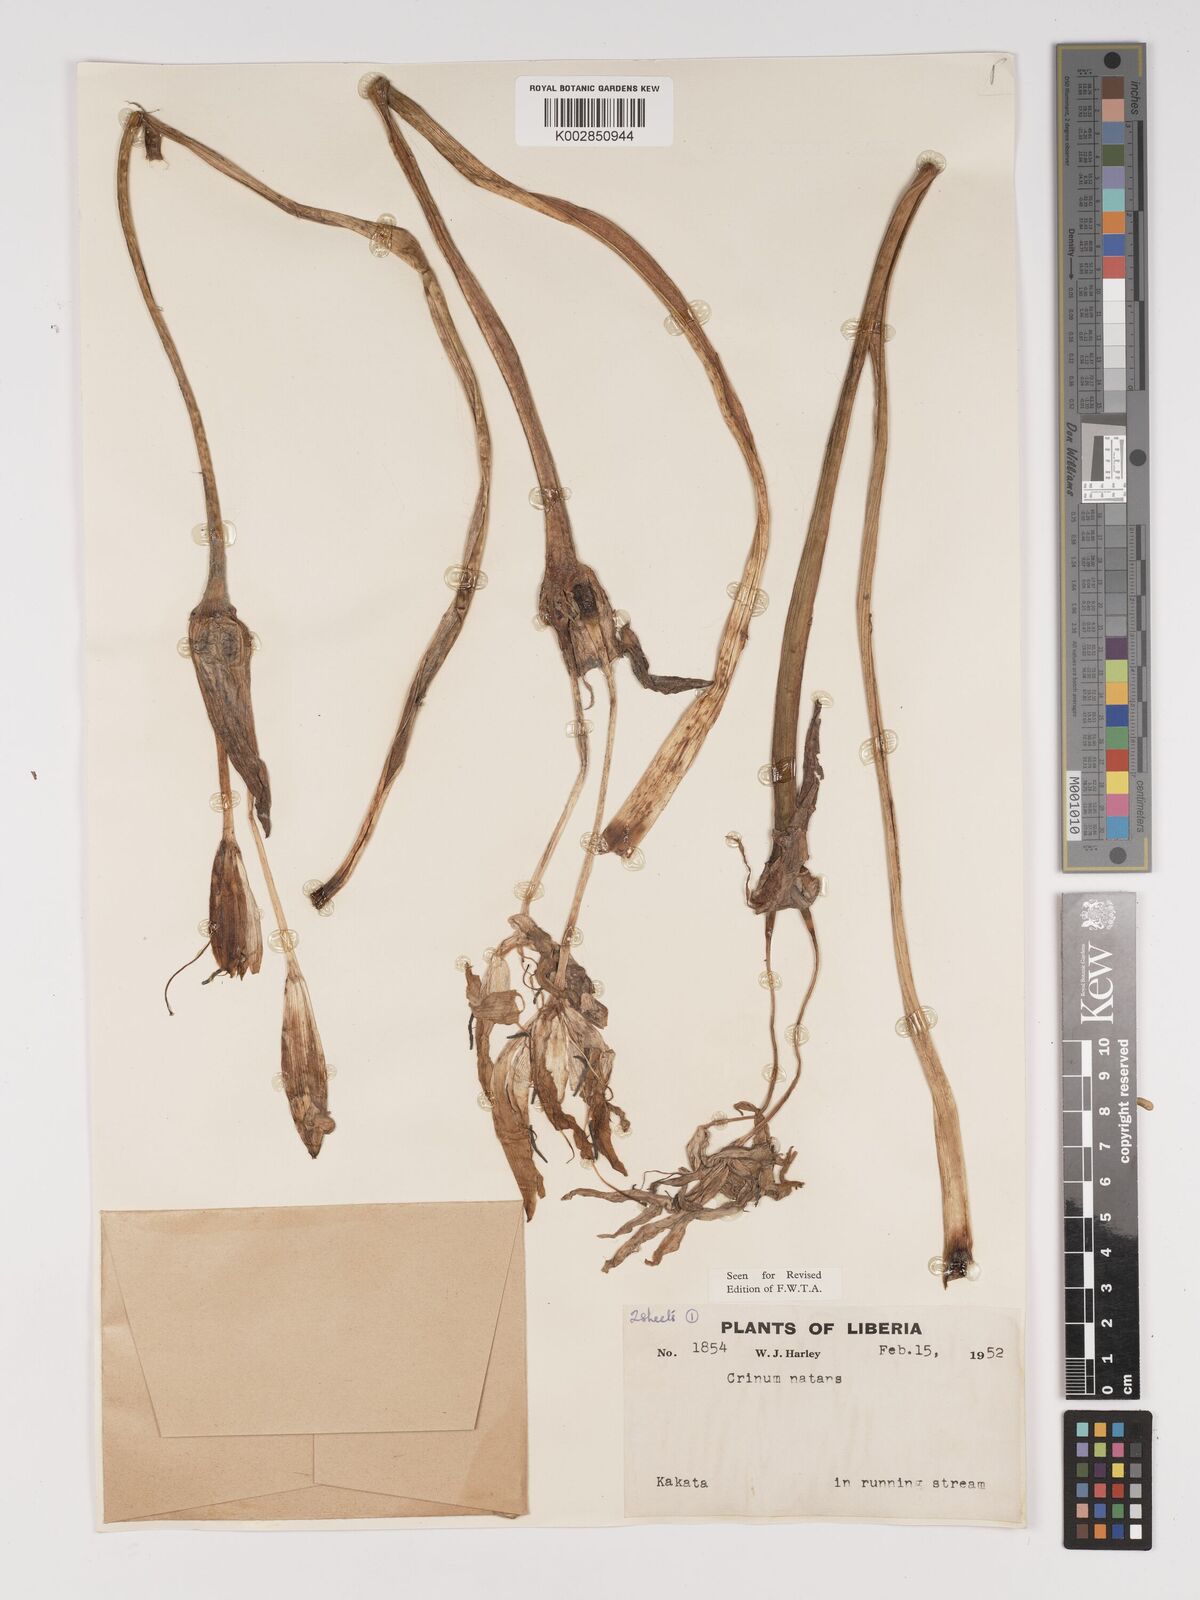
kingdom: Plantae
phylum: Tracheophyta
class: Liliopsida
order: Asparagales
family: Amaryllidaceae
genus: Crinum
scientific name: Crinum moorei
